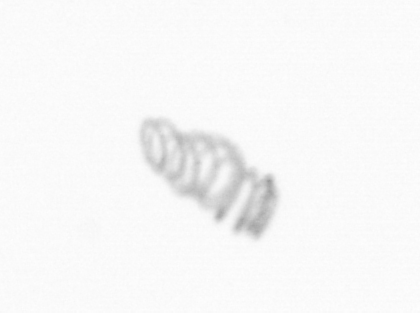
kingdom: Chromista
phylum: Ochrophyta
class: Bacillariophyceae
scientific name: Bacillariophyceae
